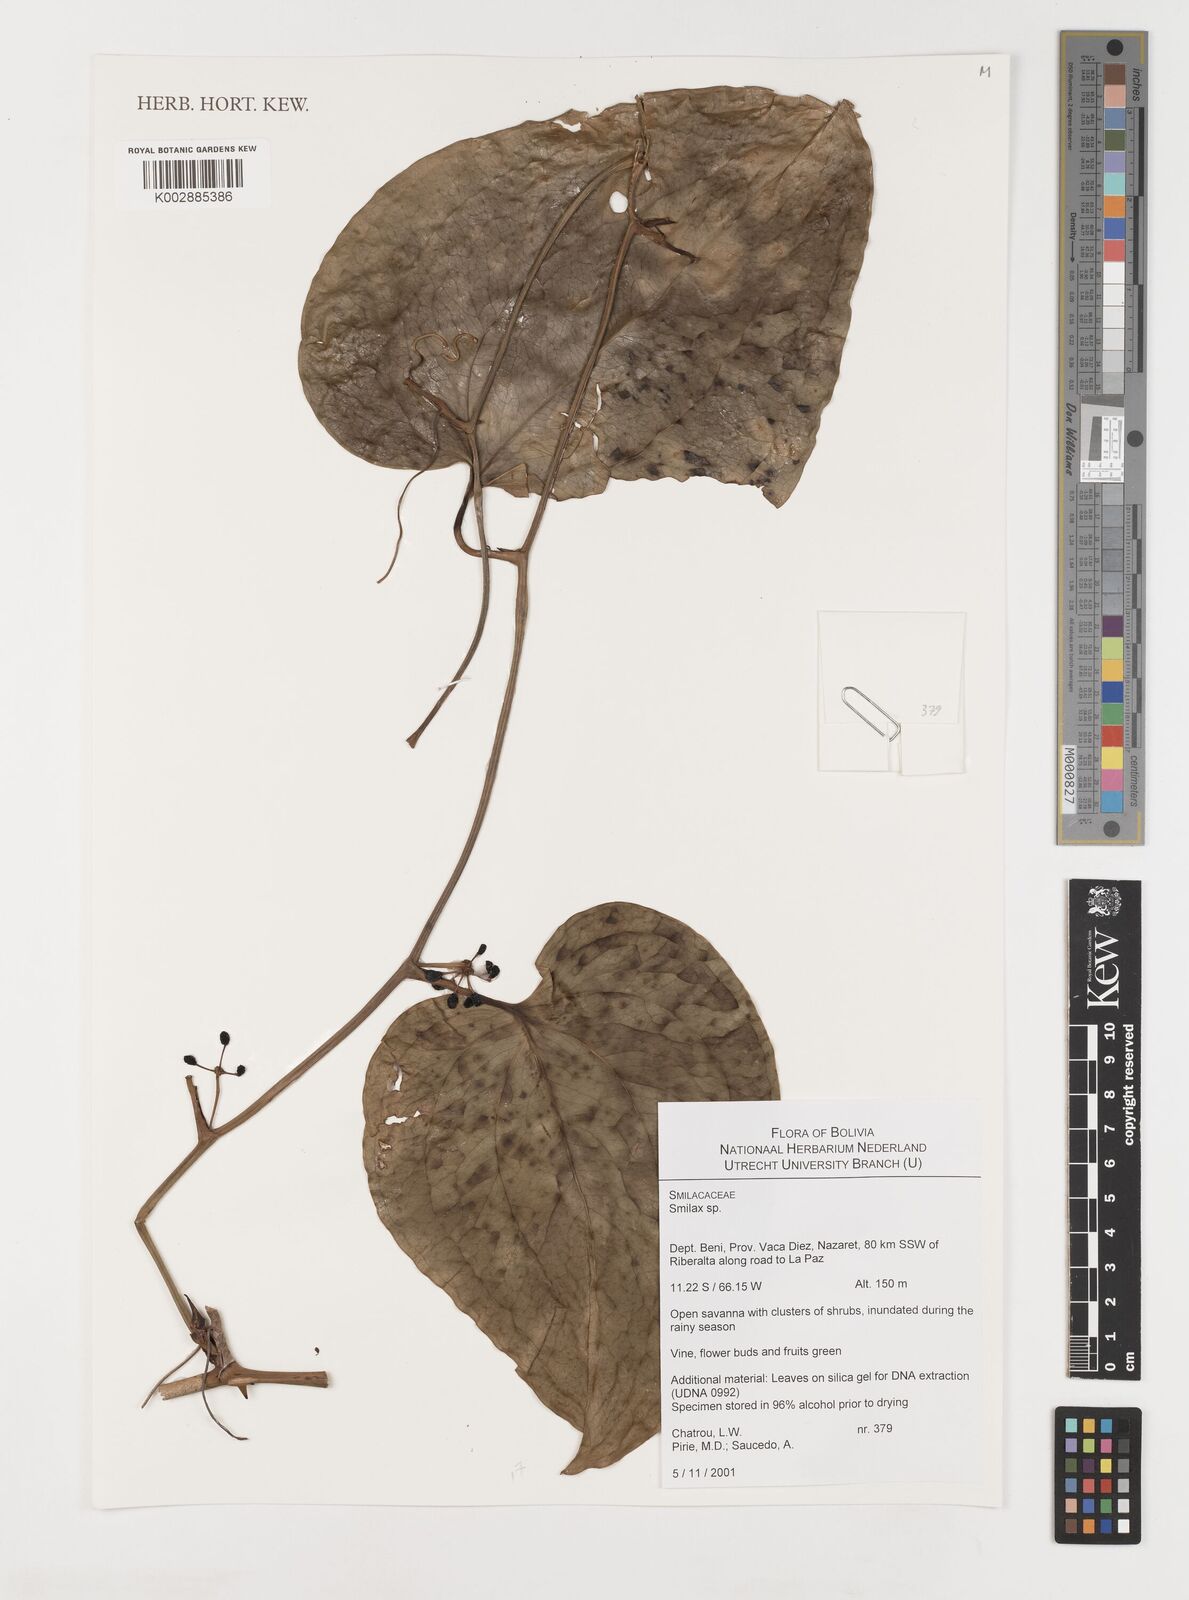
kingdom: Plantae
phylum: Tracheophyta
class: Liliopsida
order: Liliales
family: Smilacaceae
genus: Smilax
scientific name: Smilax
